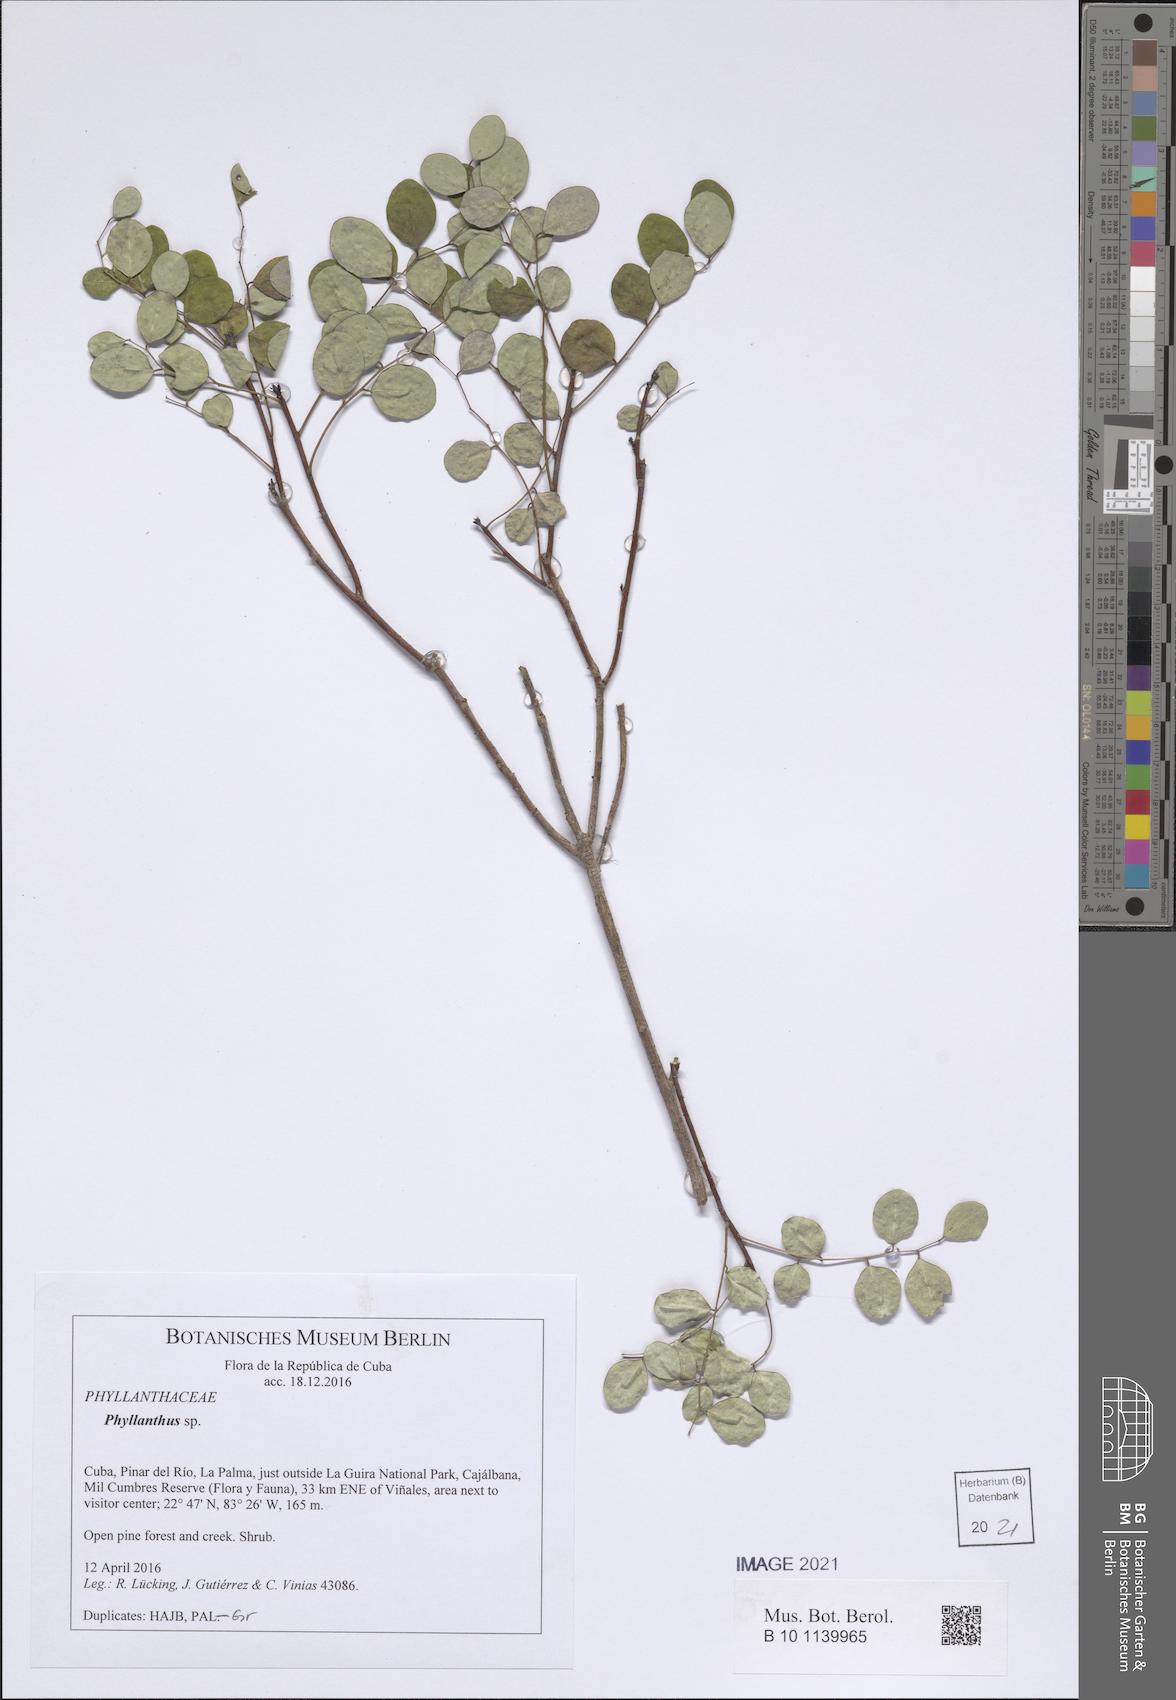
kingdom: Plantae
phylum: Tracheophyta
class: Magnoliopsida
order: Malpighiales
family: Phyllanthaceae
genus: Phyllanthus
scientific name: Phyllanthus
